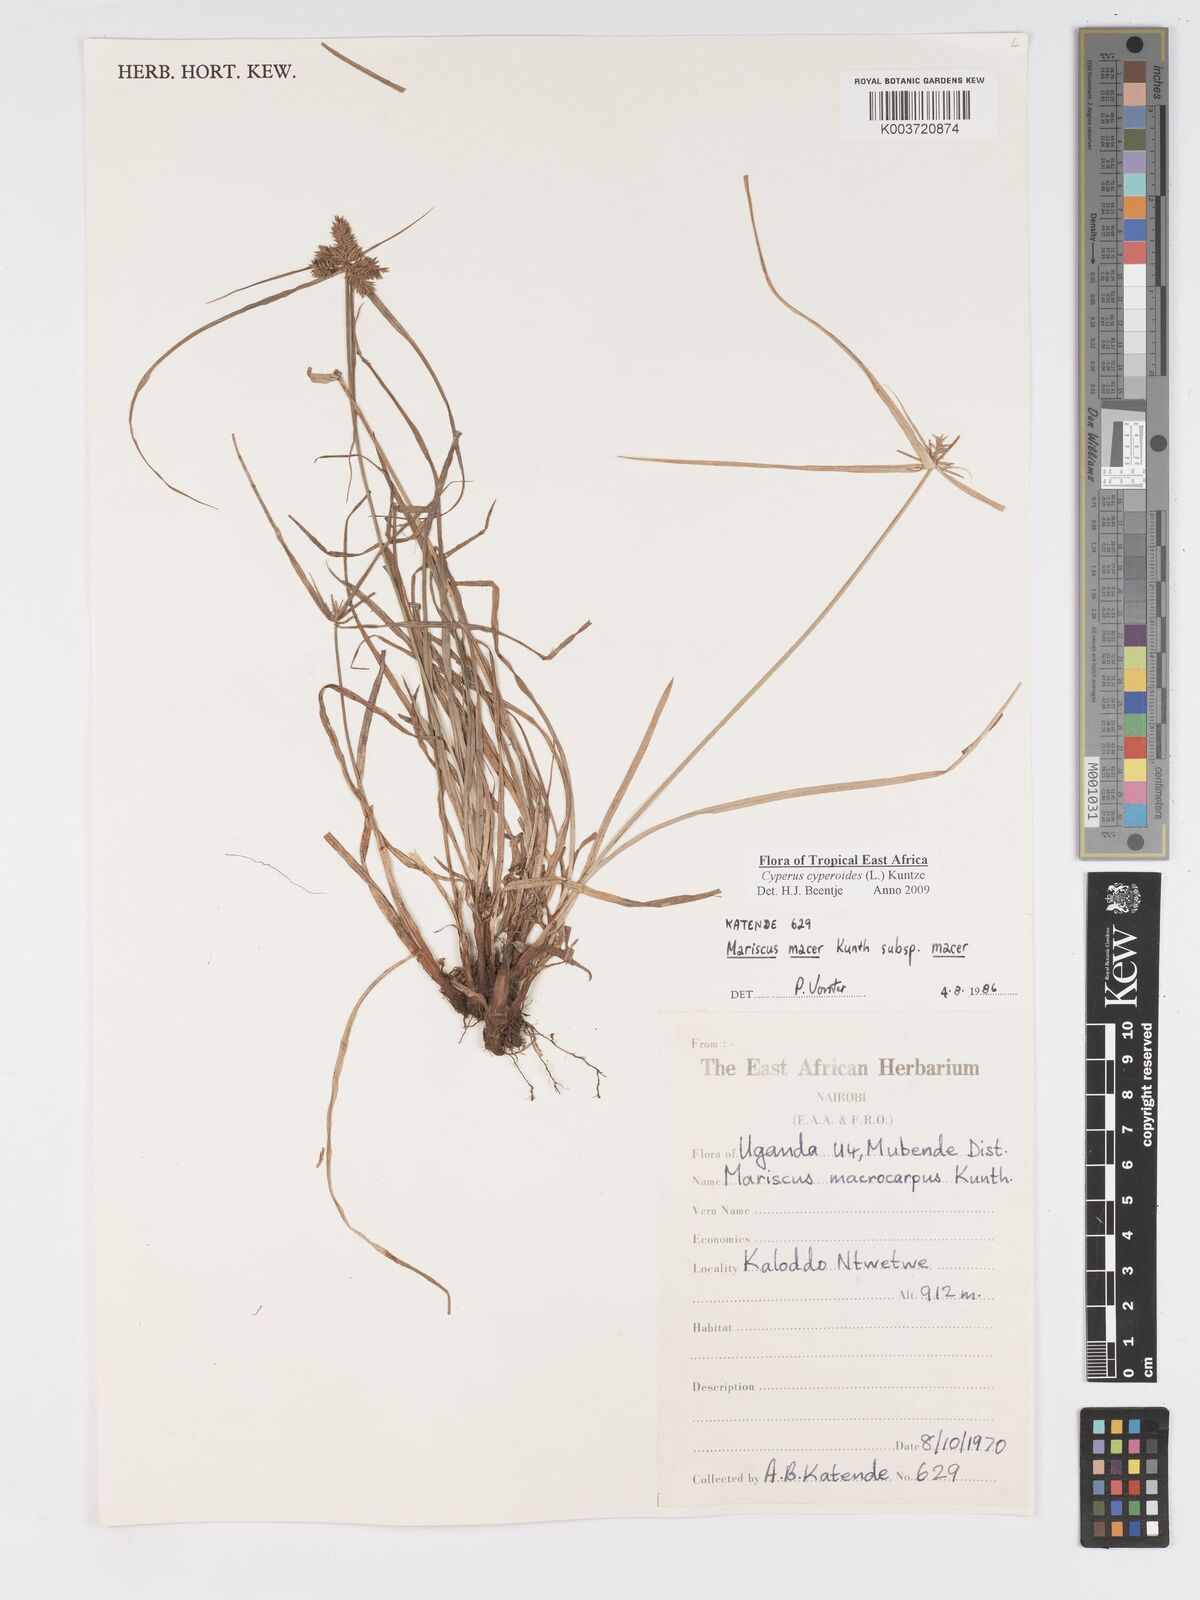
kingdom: Plantae
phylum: Tracheophyta
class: Liliopsida
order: Poales
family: Cyperaceae
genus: Cyperus
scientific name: Cyperus macrocarpus
